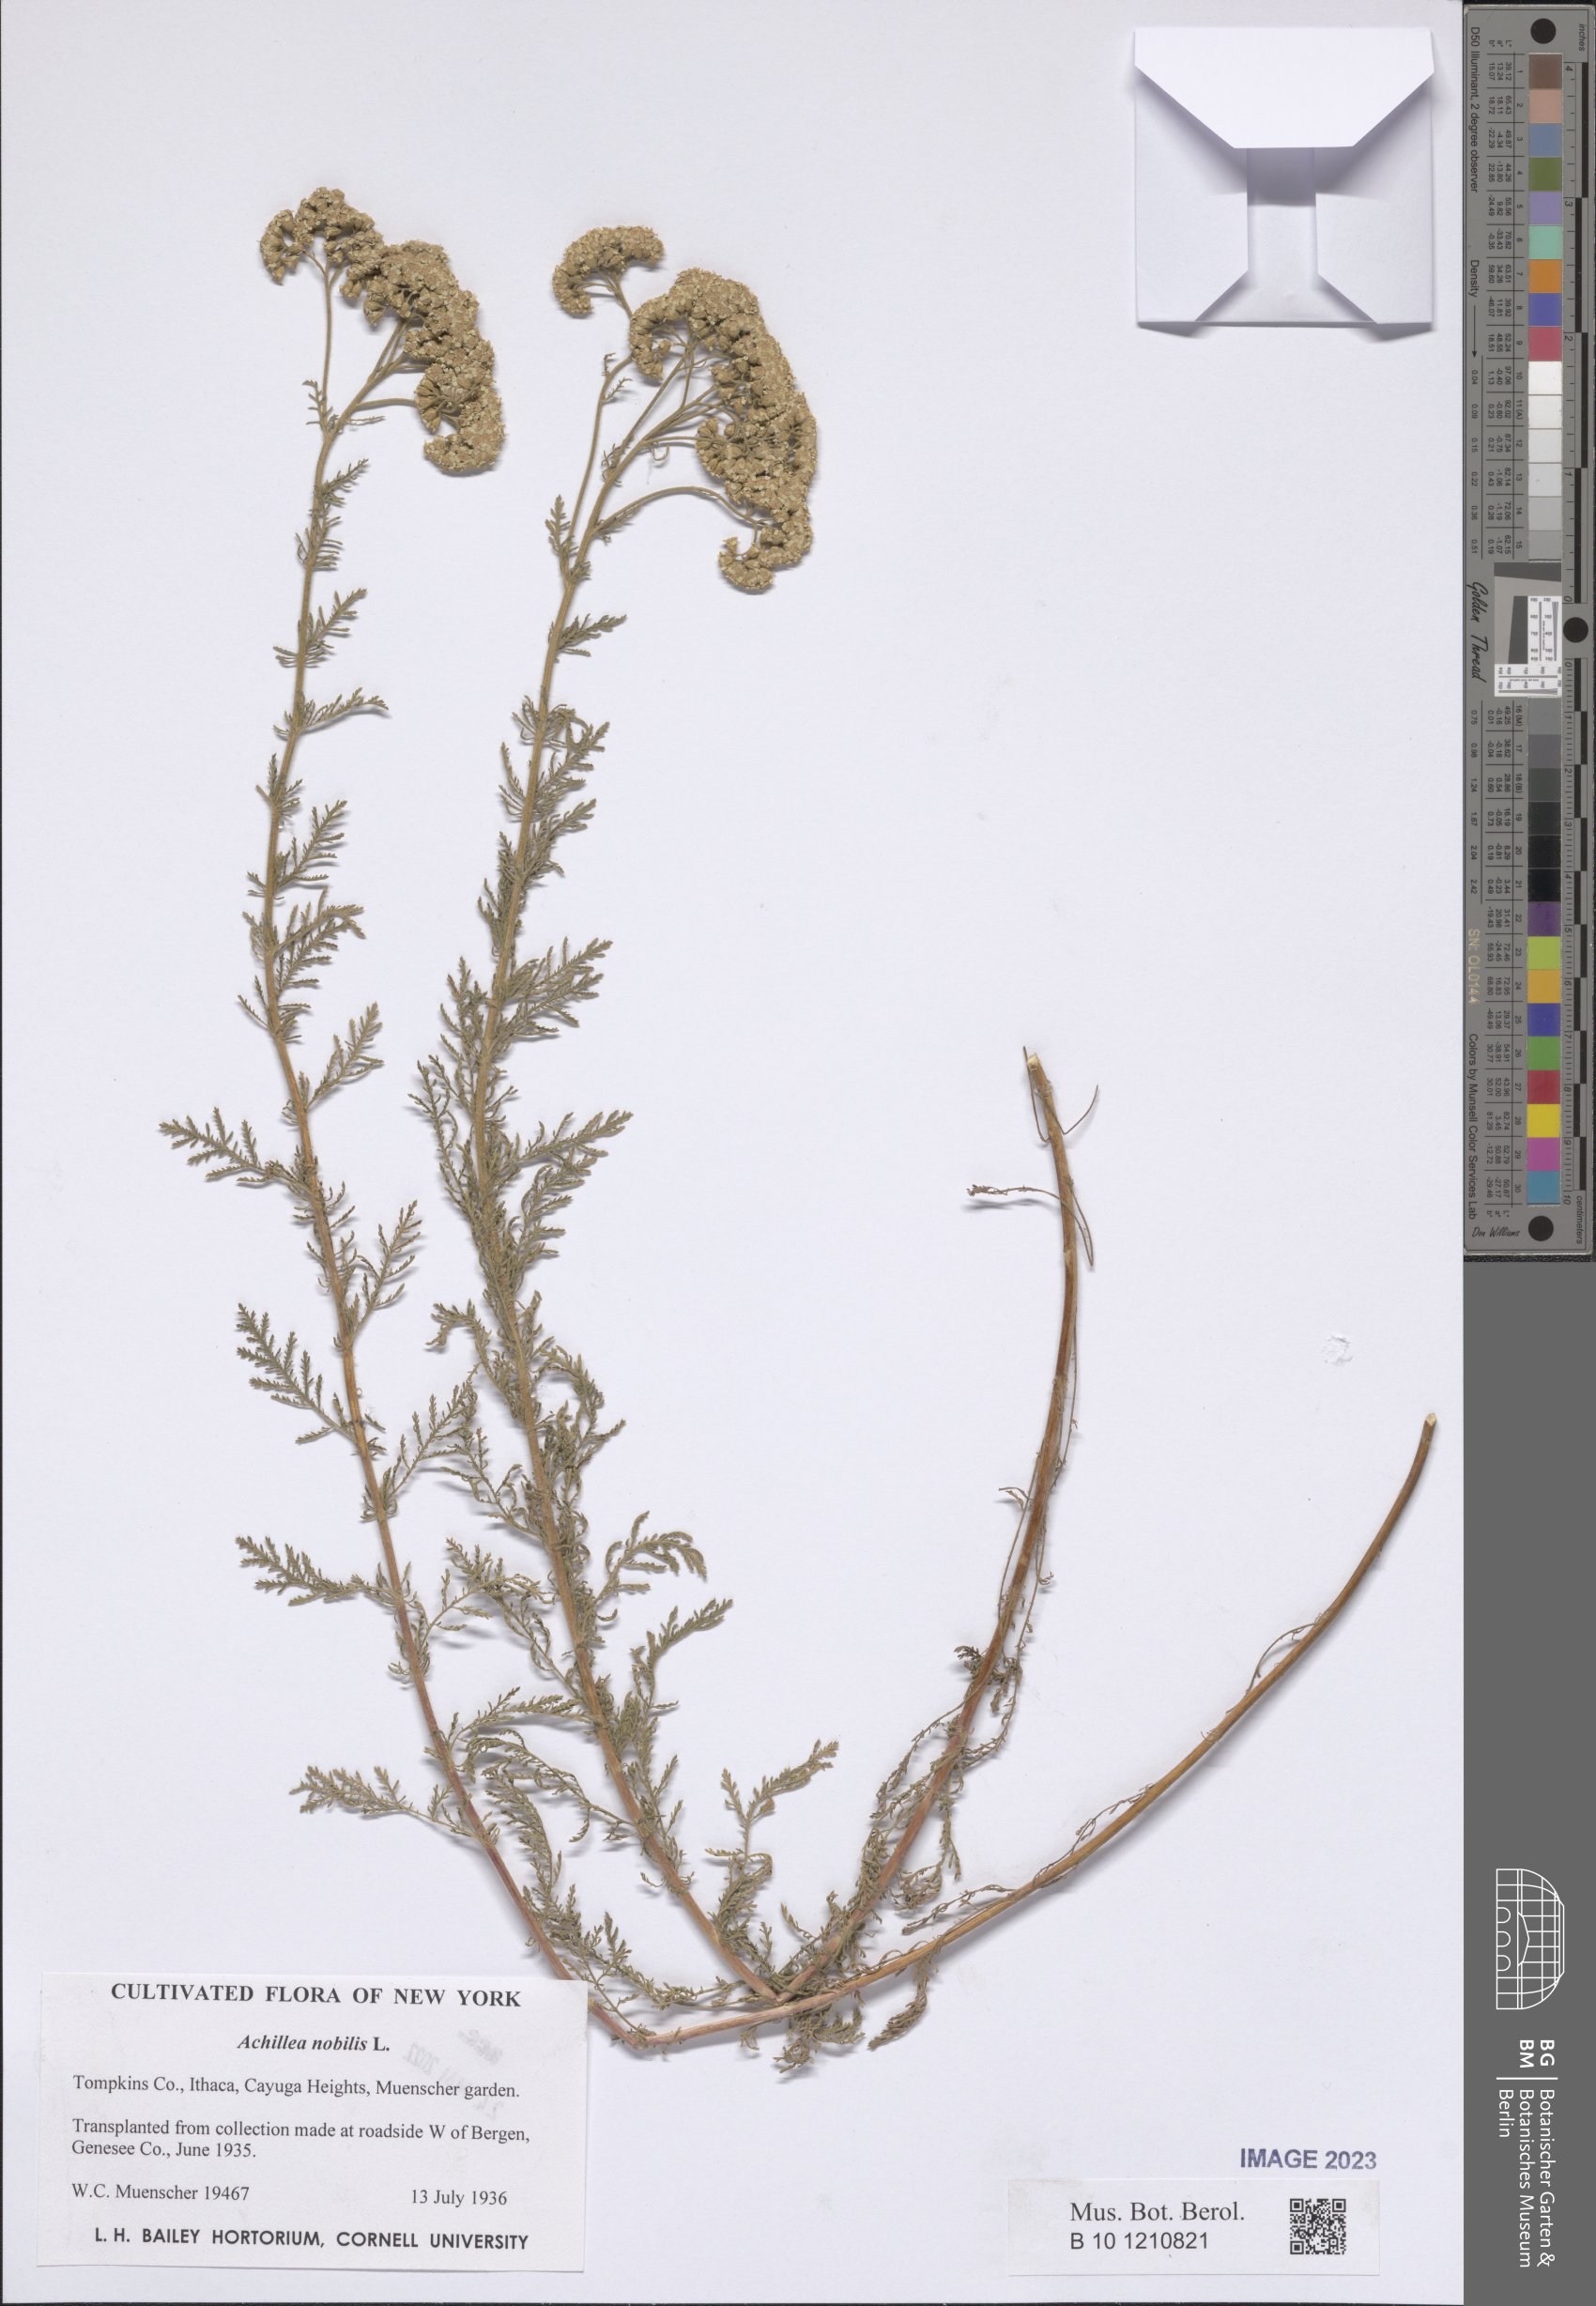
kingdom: Plantae
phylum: Tracheophyta
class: Magnoliopsida
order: Asterales
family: Asteraceae
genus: Achillea
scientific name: Achillea nobilis
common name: Noble yarrow
